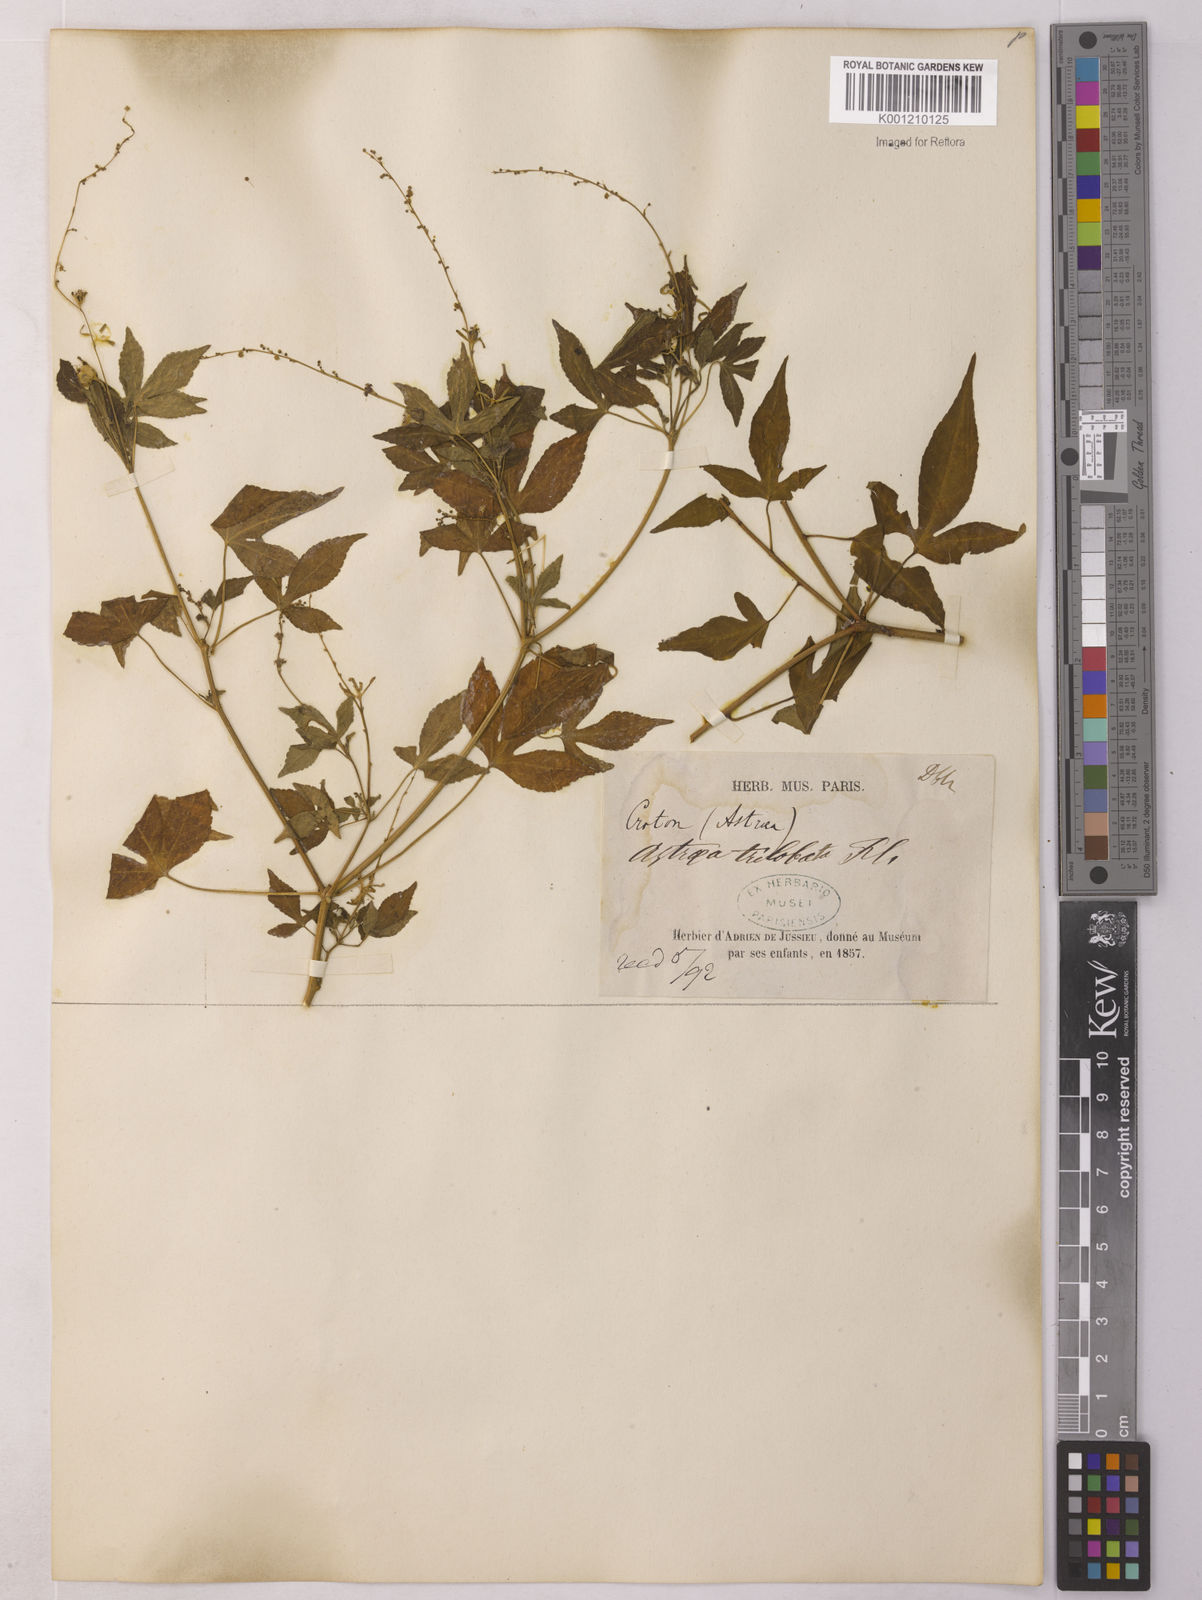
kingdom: Plantae
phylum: Tracheophyta
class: Magnoliopsida
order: Malpighiales
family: Euphorbiaceae
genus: Astraea
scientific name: Astraea macroura
